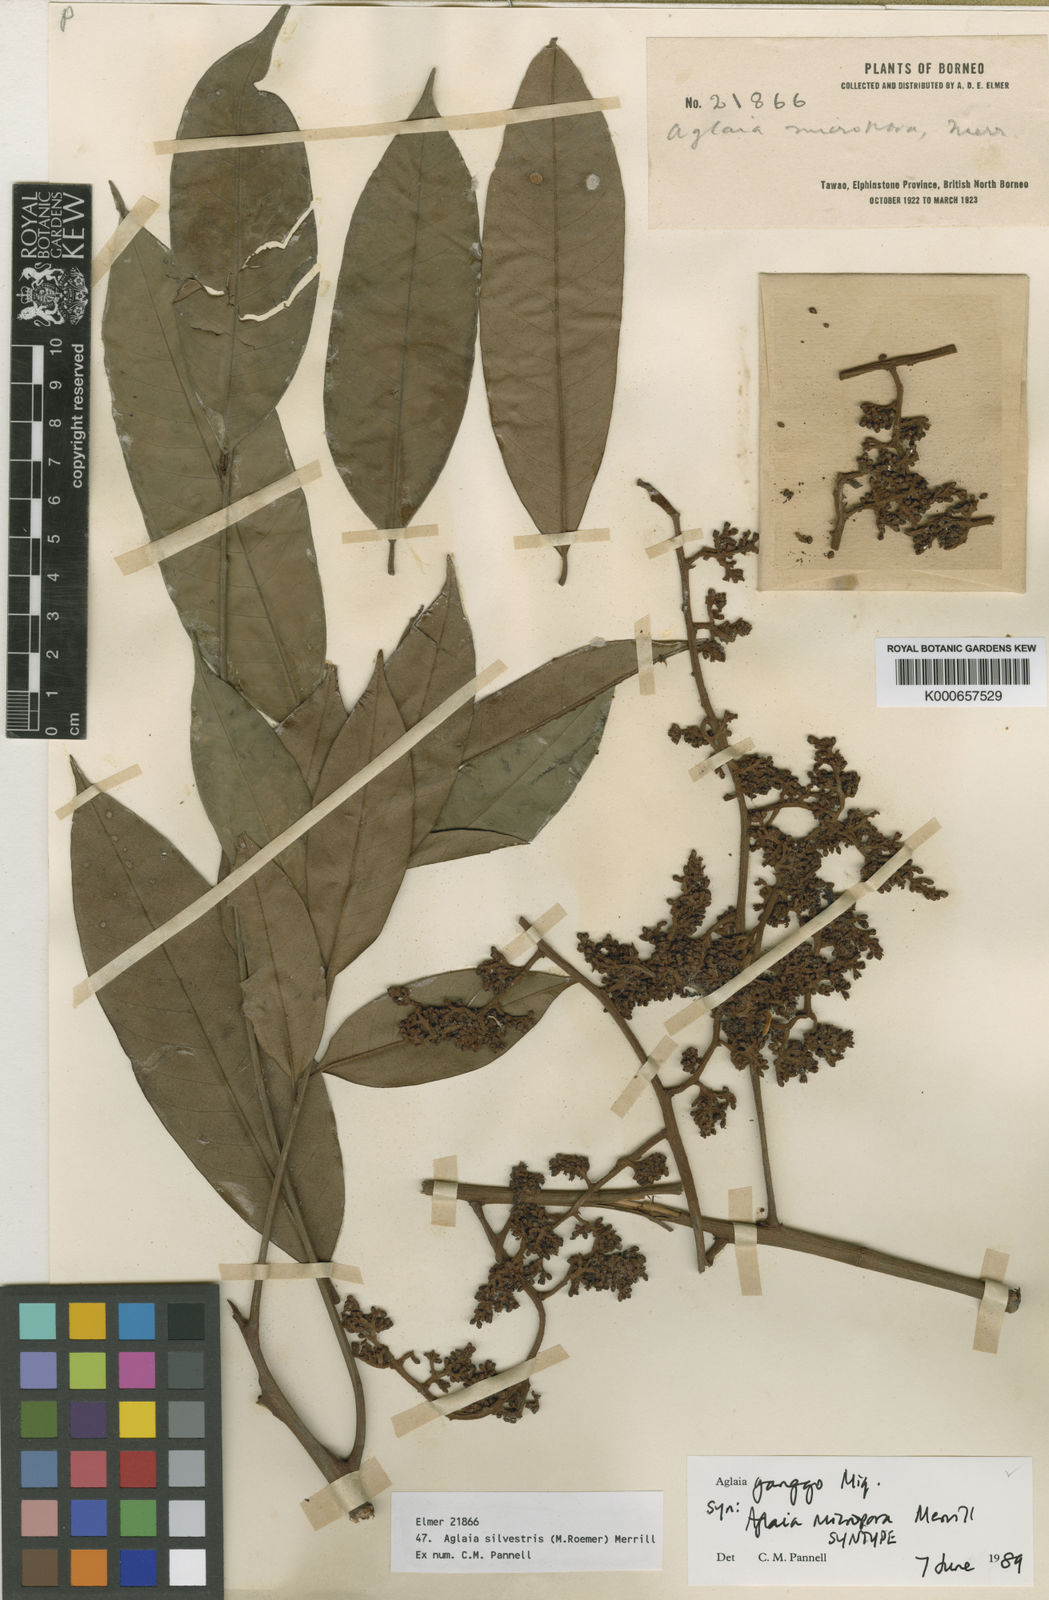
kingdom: Plantae
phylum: Tracheophyta
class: Magnoliopsida
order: Sapindales
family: Meliaceae
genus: Aglaia
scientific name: Aglaia silvestris
